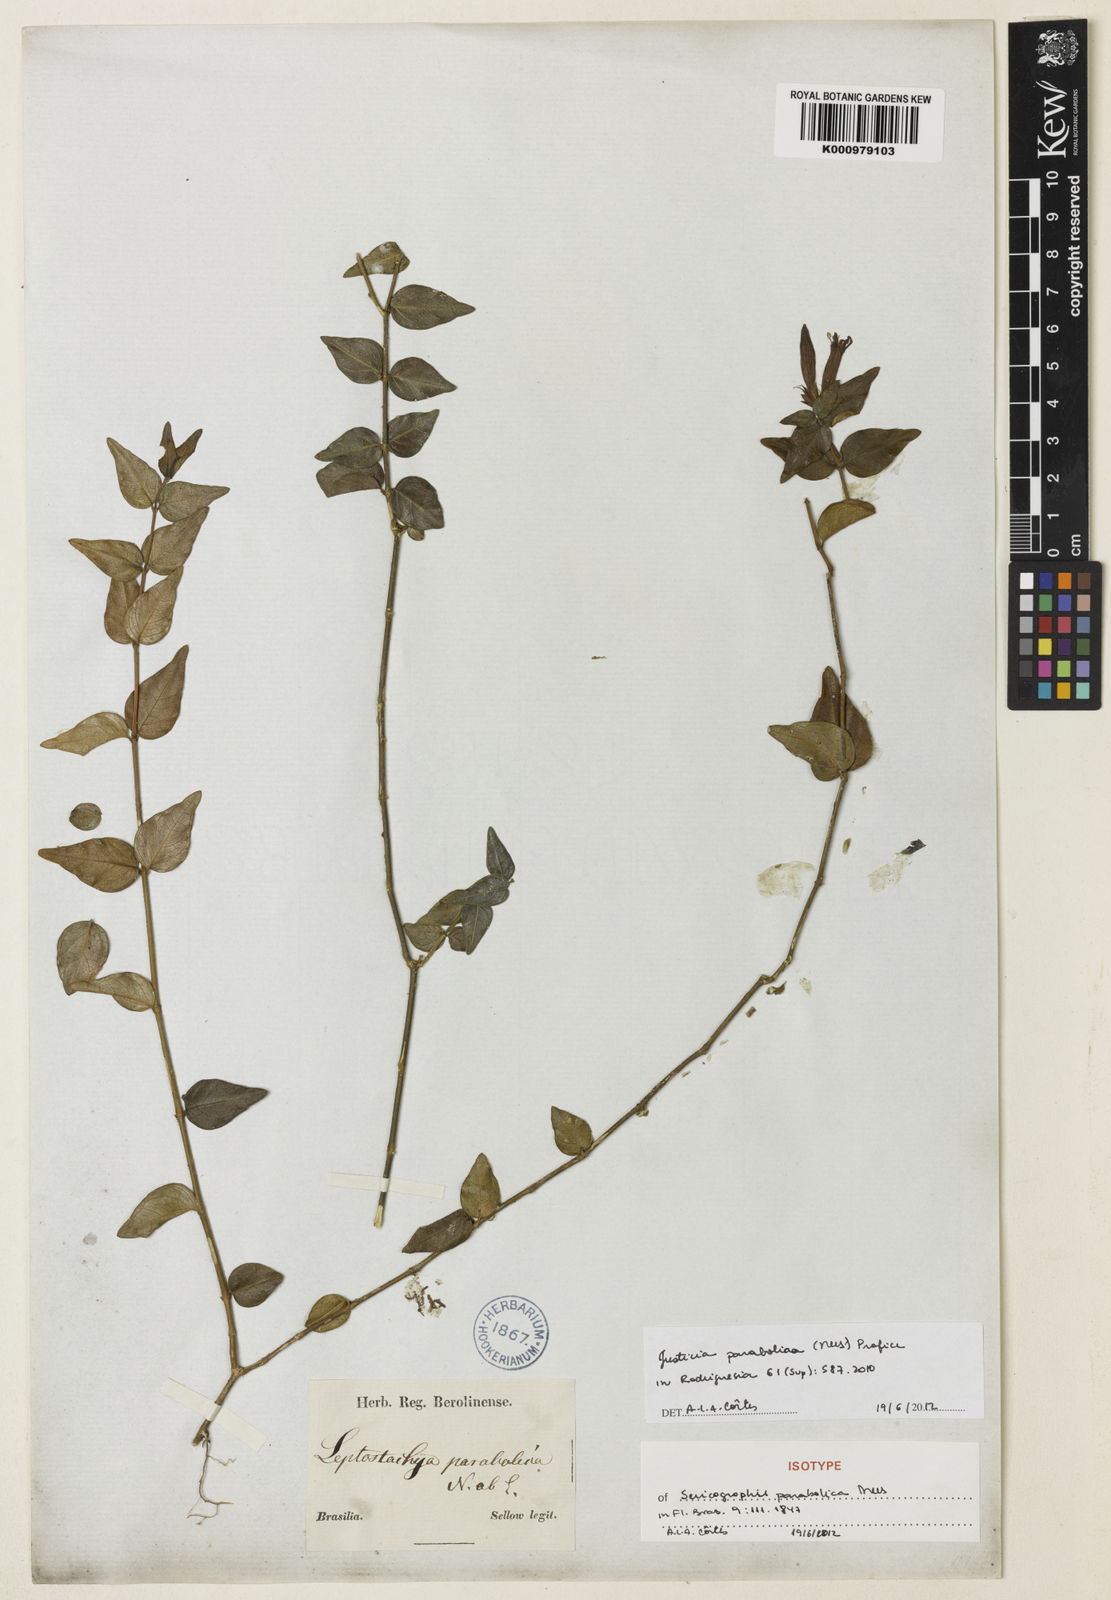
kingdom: Plantae
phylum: Tracheophyta
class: Magnoliopsida
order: Lamiales
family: Acanthaceae
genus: Justicia
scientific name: Justicia brasiliana
